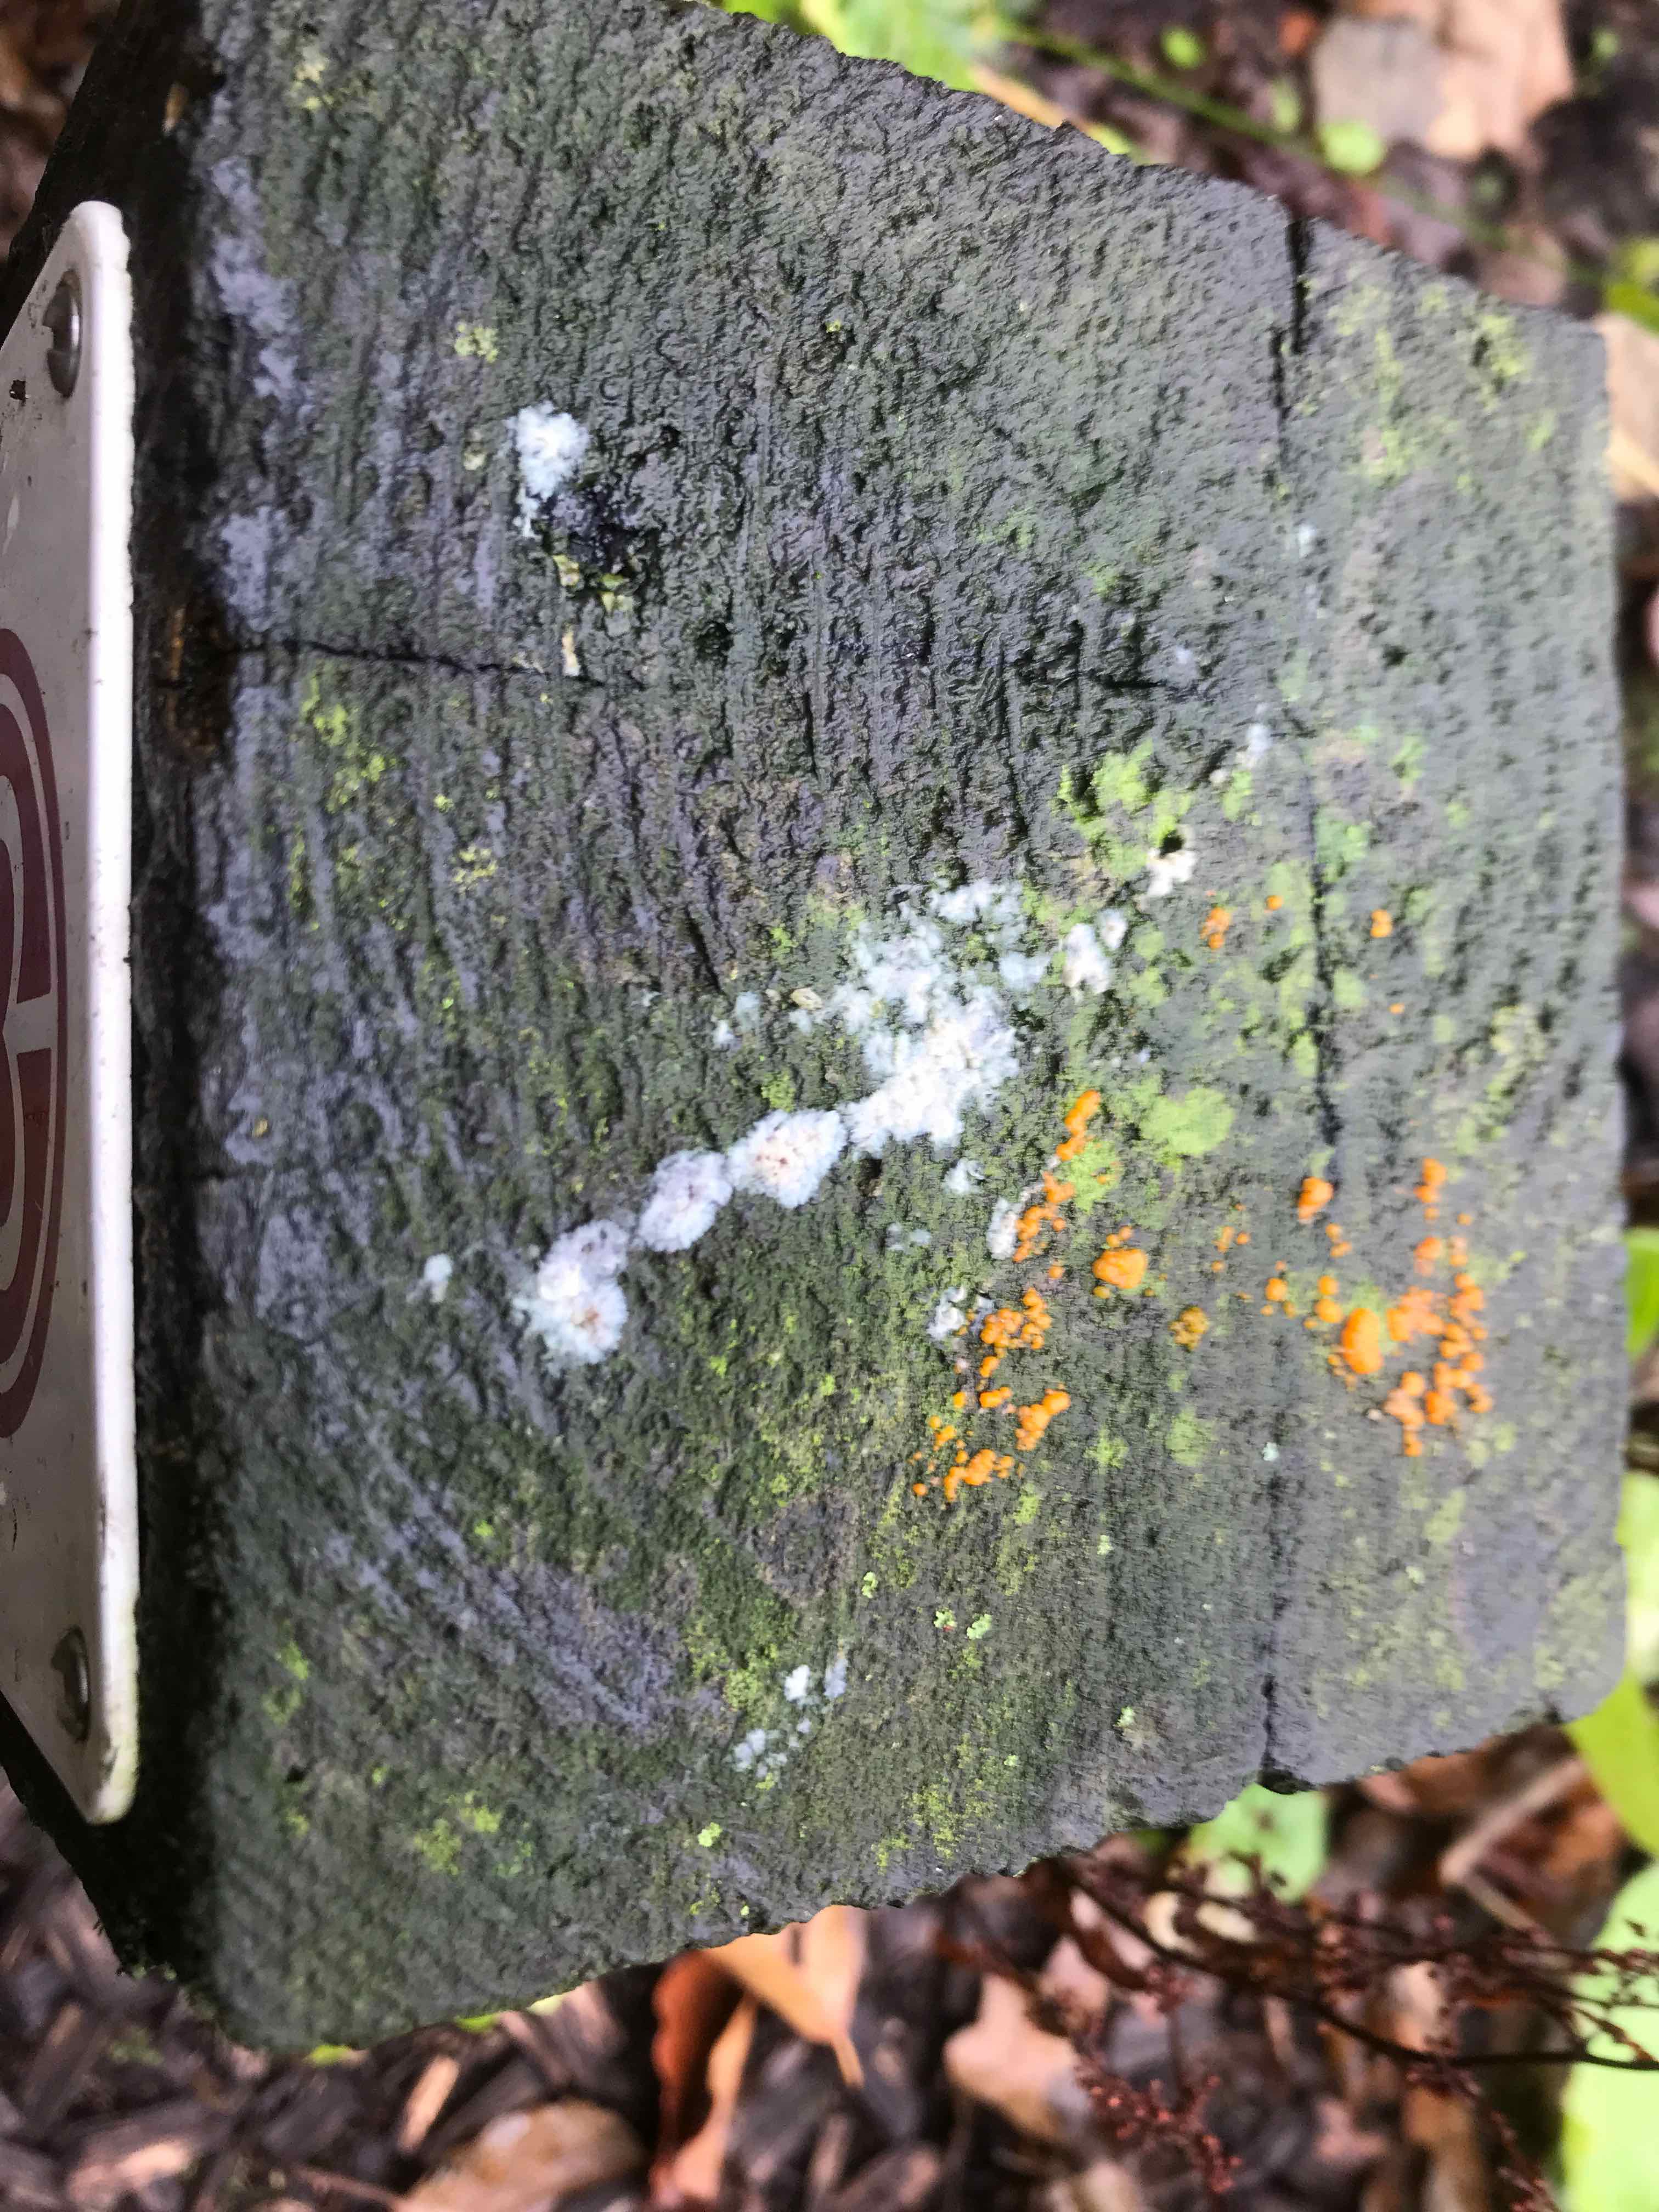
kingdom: Fungi
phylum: Basidiomycota
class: Dacrymycetes
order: Dacrymycetales
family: Dacrymycetaceae
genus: Dacrymyces
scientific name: Dacrymyces stillatus
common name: almindelig tåresvamp
